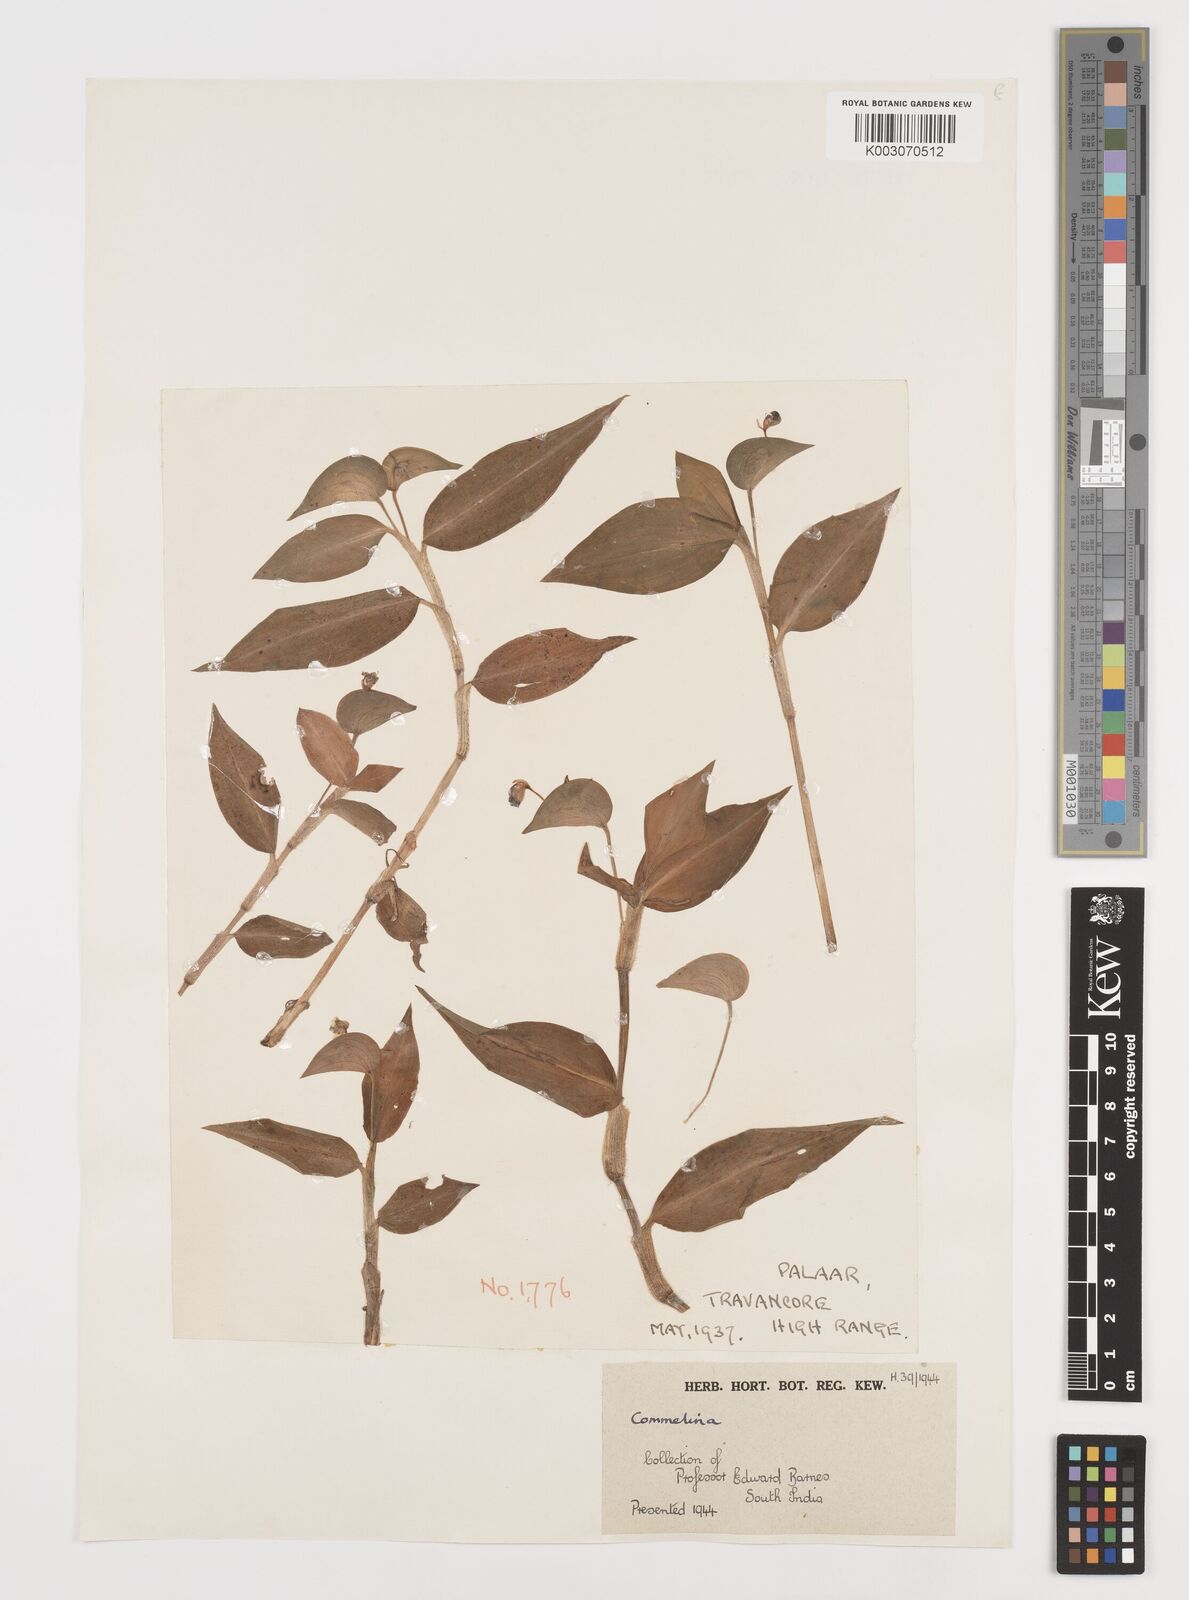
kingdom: Plantae
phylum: Tracheophyta
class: Liliopsida
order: Commelinales
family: Commelinaceae
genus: Commelina
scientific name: Commelina
